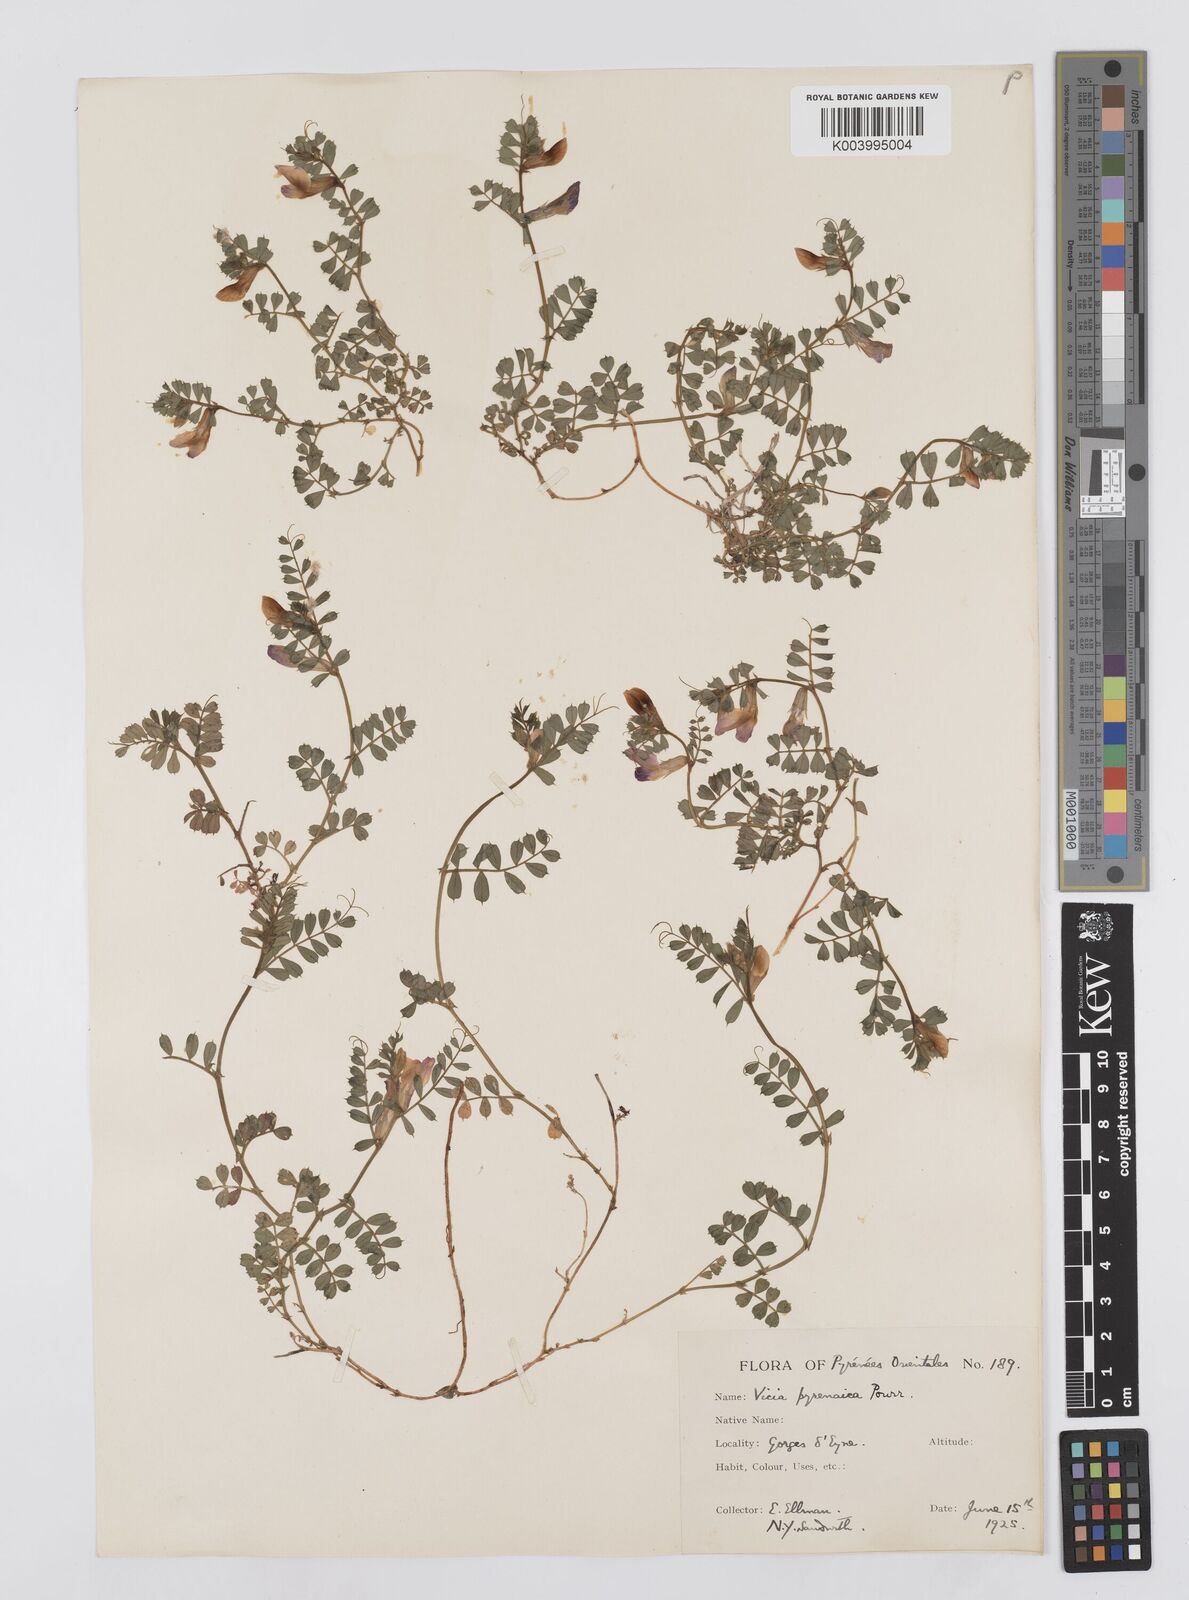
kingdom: Plantae
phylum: Tracheophyta
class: Magnoliopsida
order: Fabales
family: Fabaceae
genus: Vicia
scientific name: Vicia pyrenaica
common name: Pyrenean vetch
